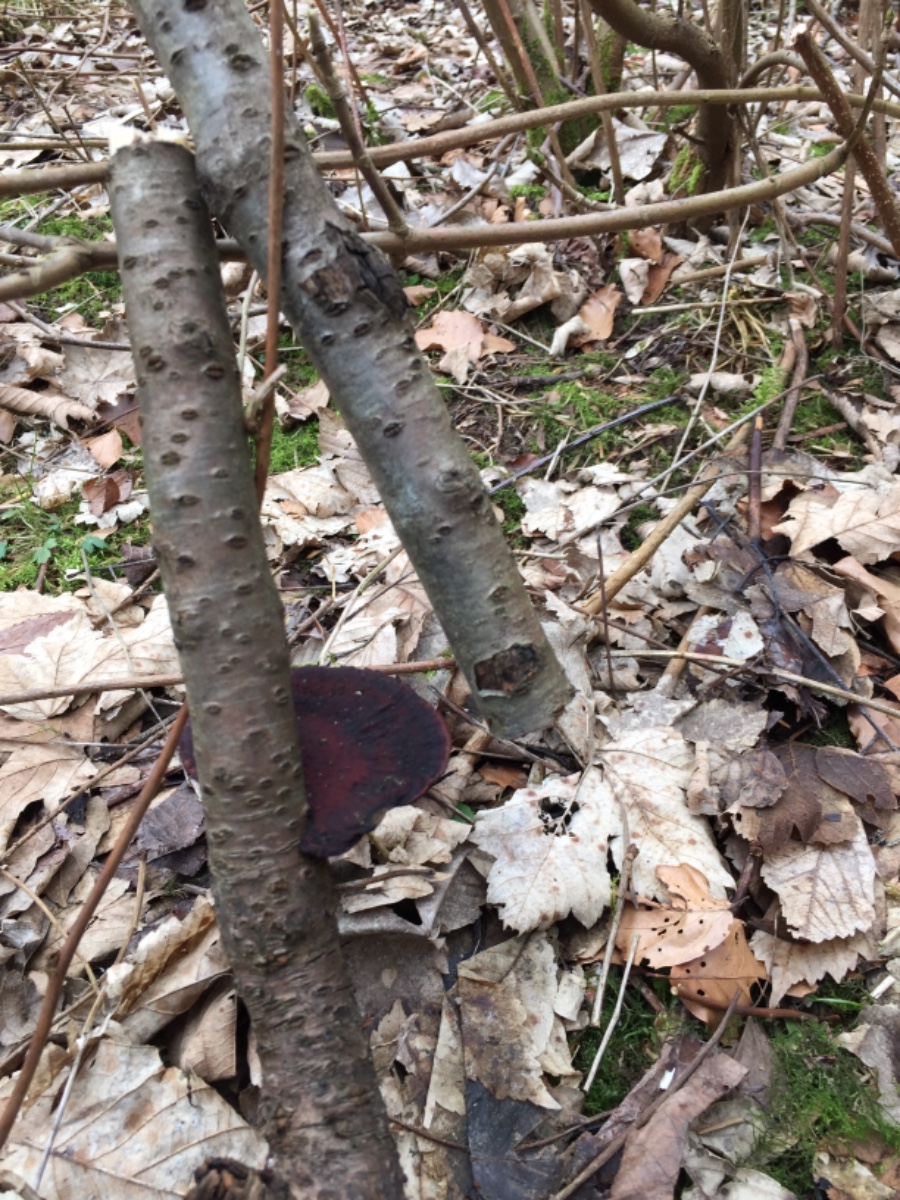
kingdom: Fungi
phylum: Basidiomycota
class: Agaricomycetes
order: Polyporales
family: Polyporaceae
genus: Daedaleopsis
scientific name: Daedaleopsis confragosa
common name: rødmende læderporesvamp
